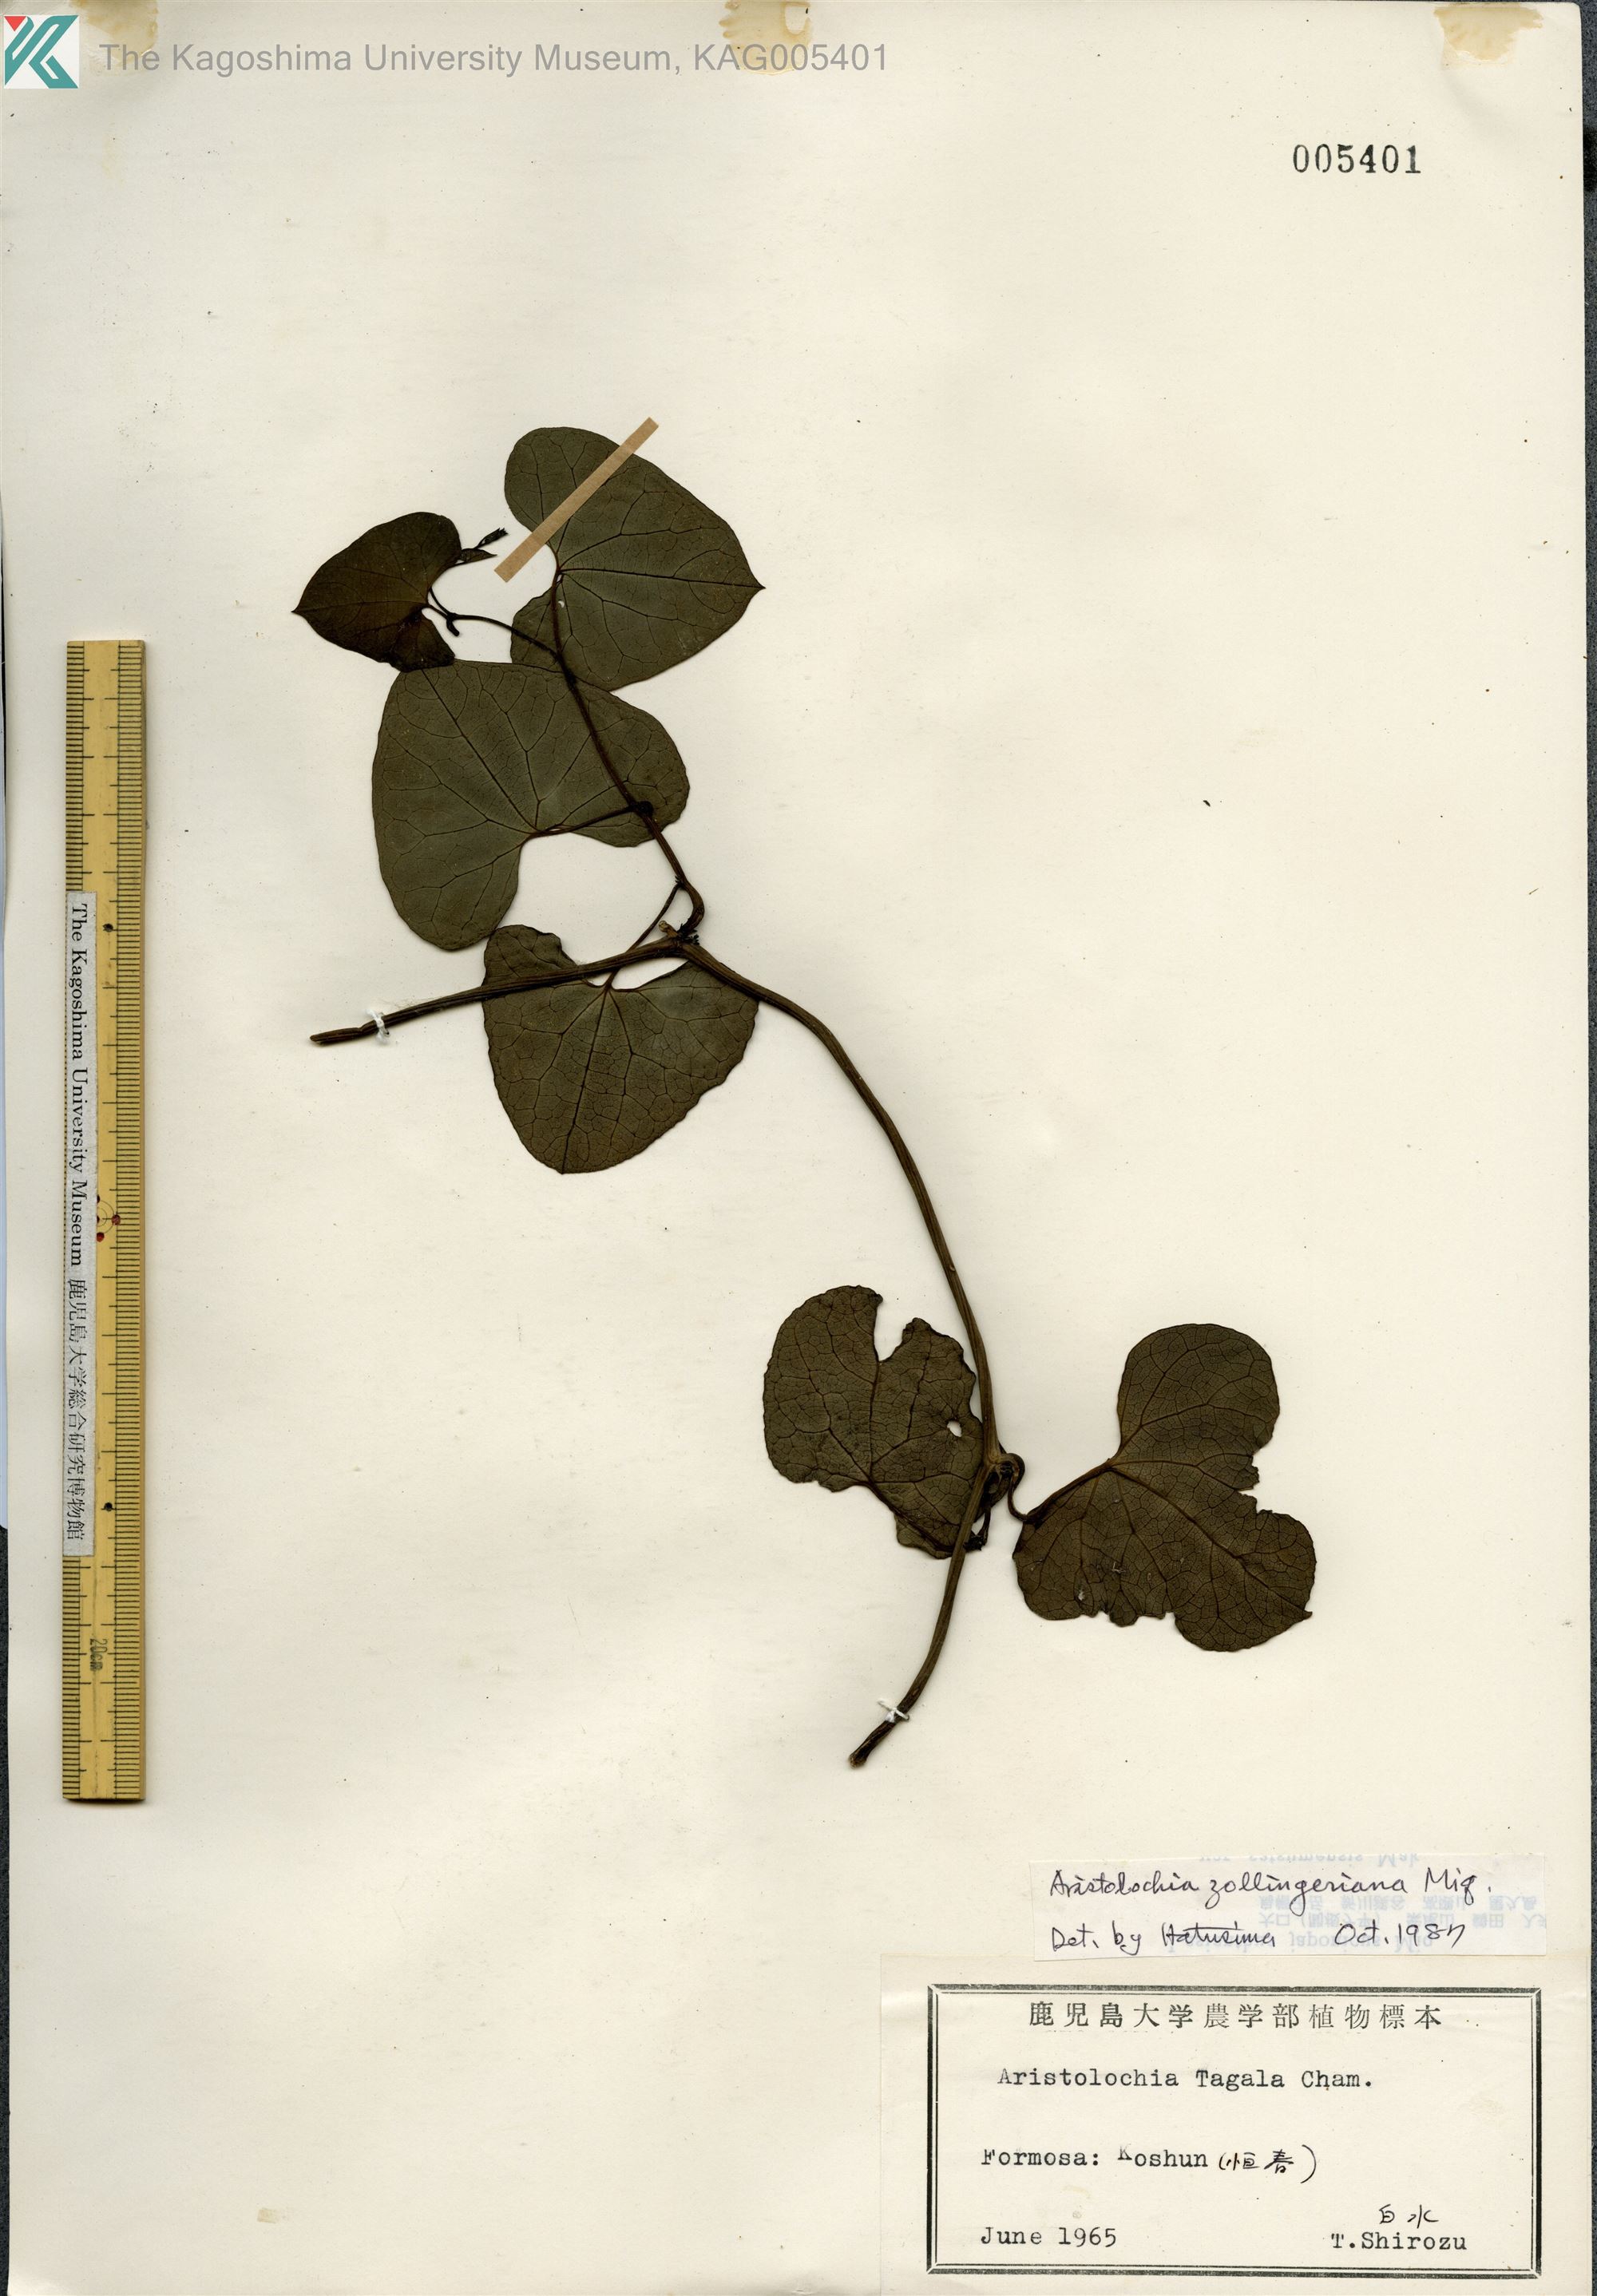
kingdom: Plantae
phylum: Tracheophyta
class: Magnoliopsida
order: Piperales
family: Aristolochiaceae
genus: Aristolochia
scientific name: Aristolochia zollingeriana
